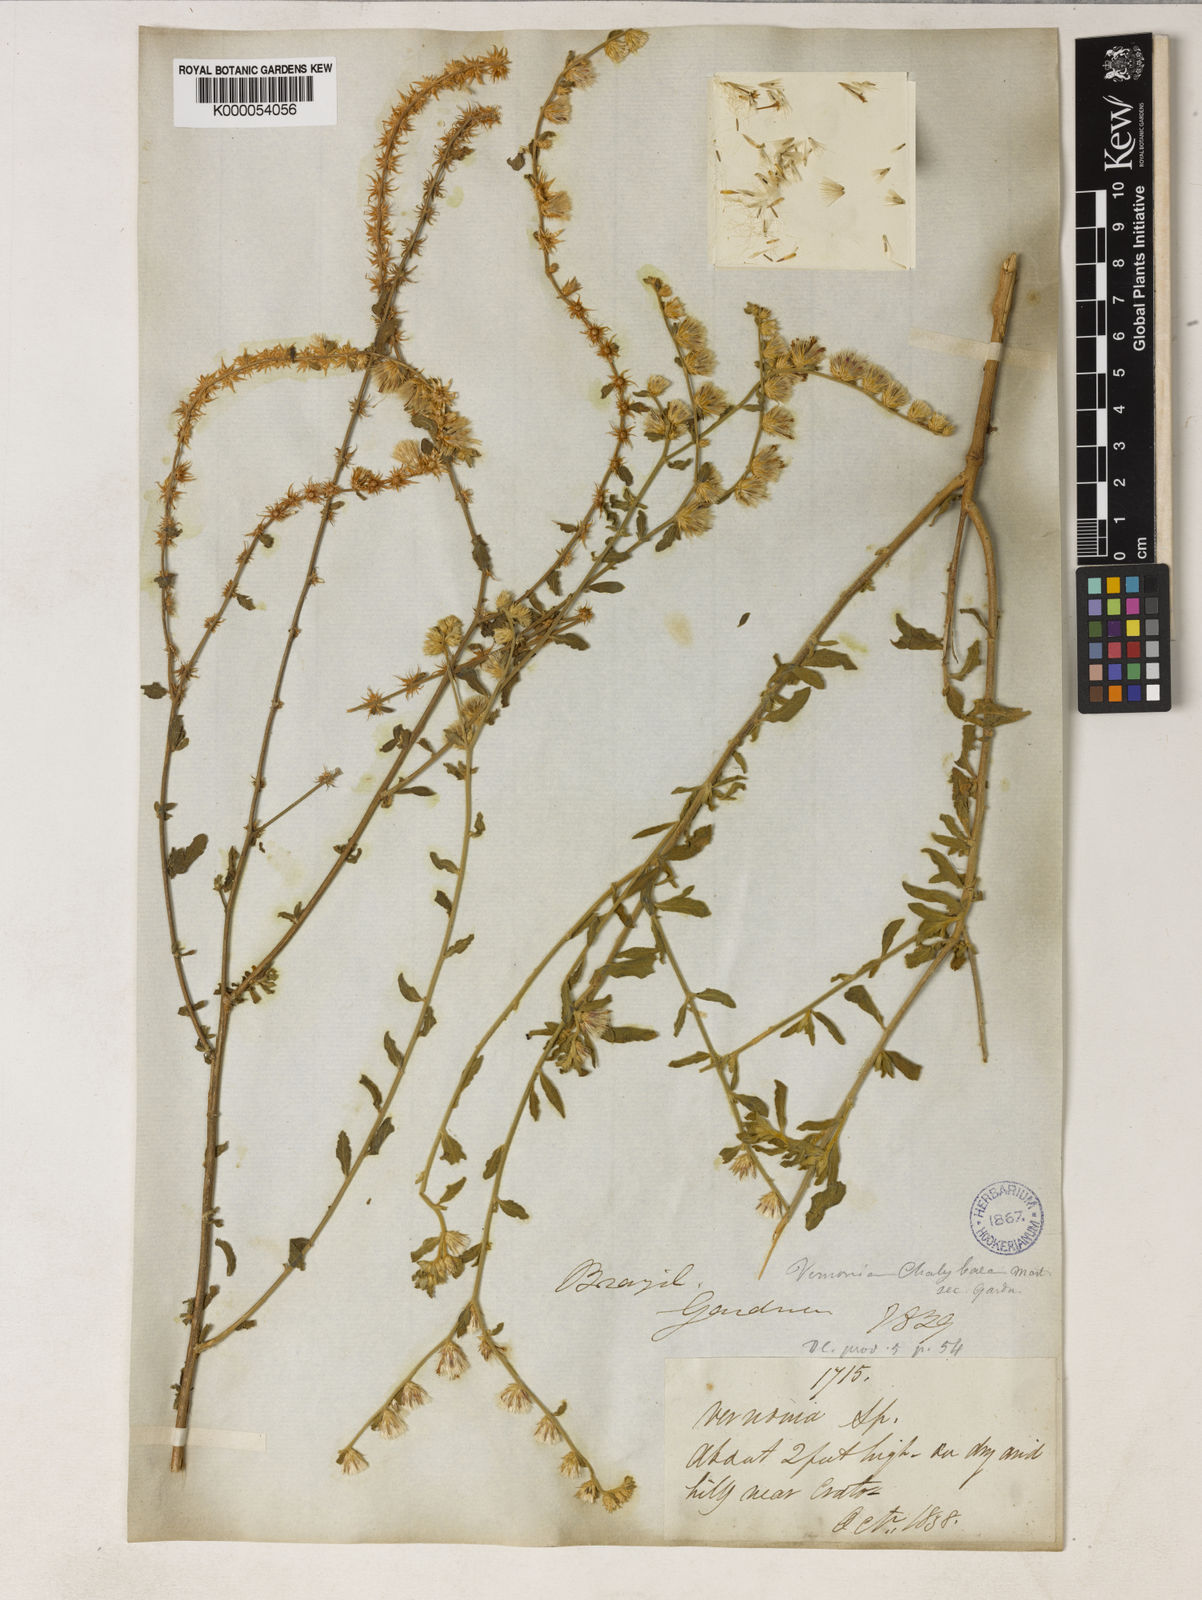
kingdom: Plantae
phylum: Tracheophyta
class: Magnoliopsida
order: Asterales
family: Asteraceae
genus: Lepidaploa
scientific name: Lepidaploa chalybaea
